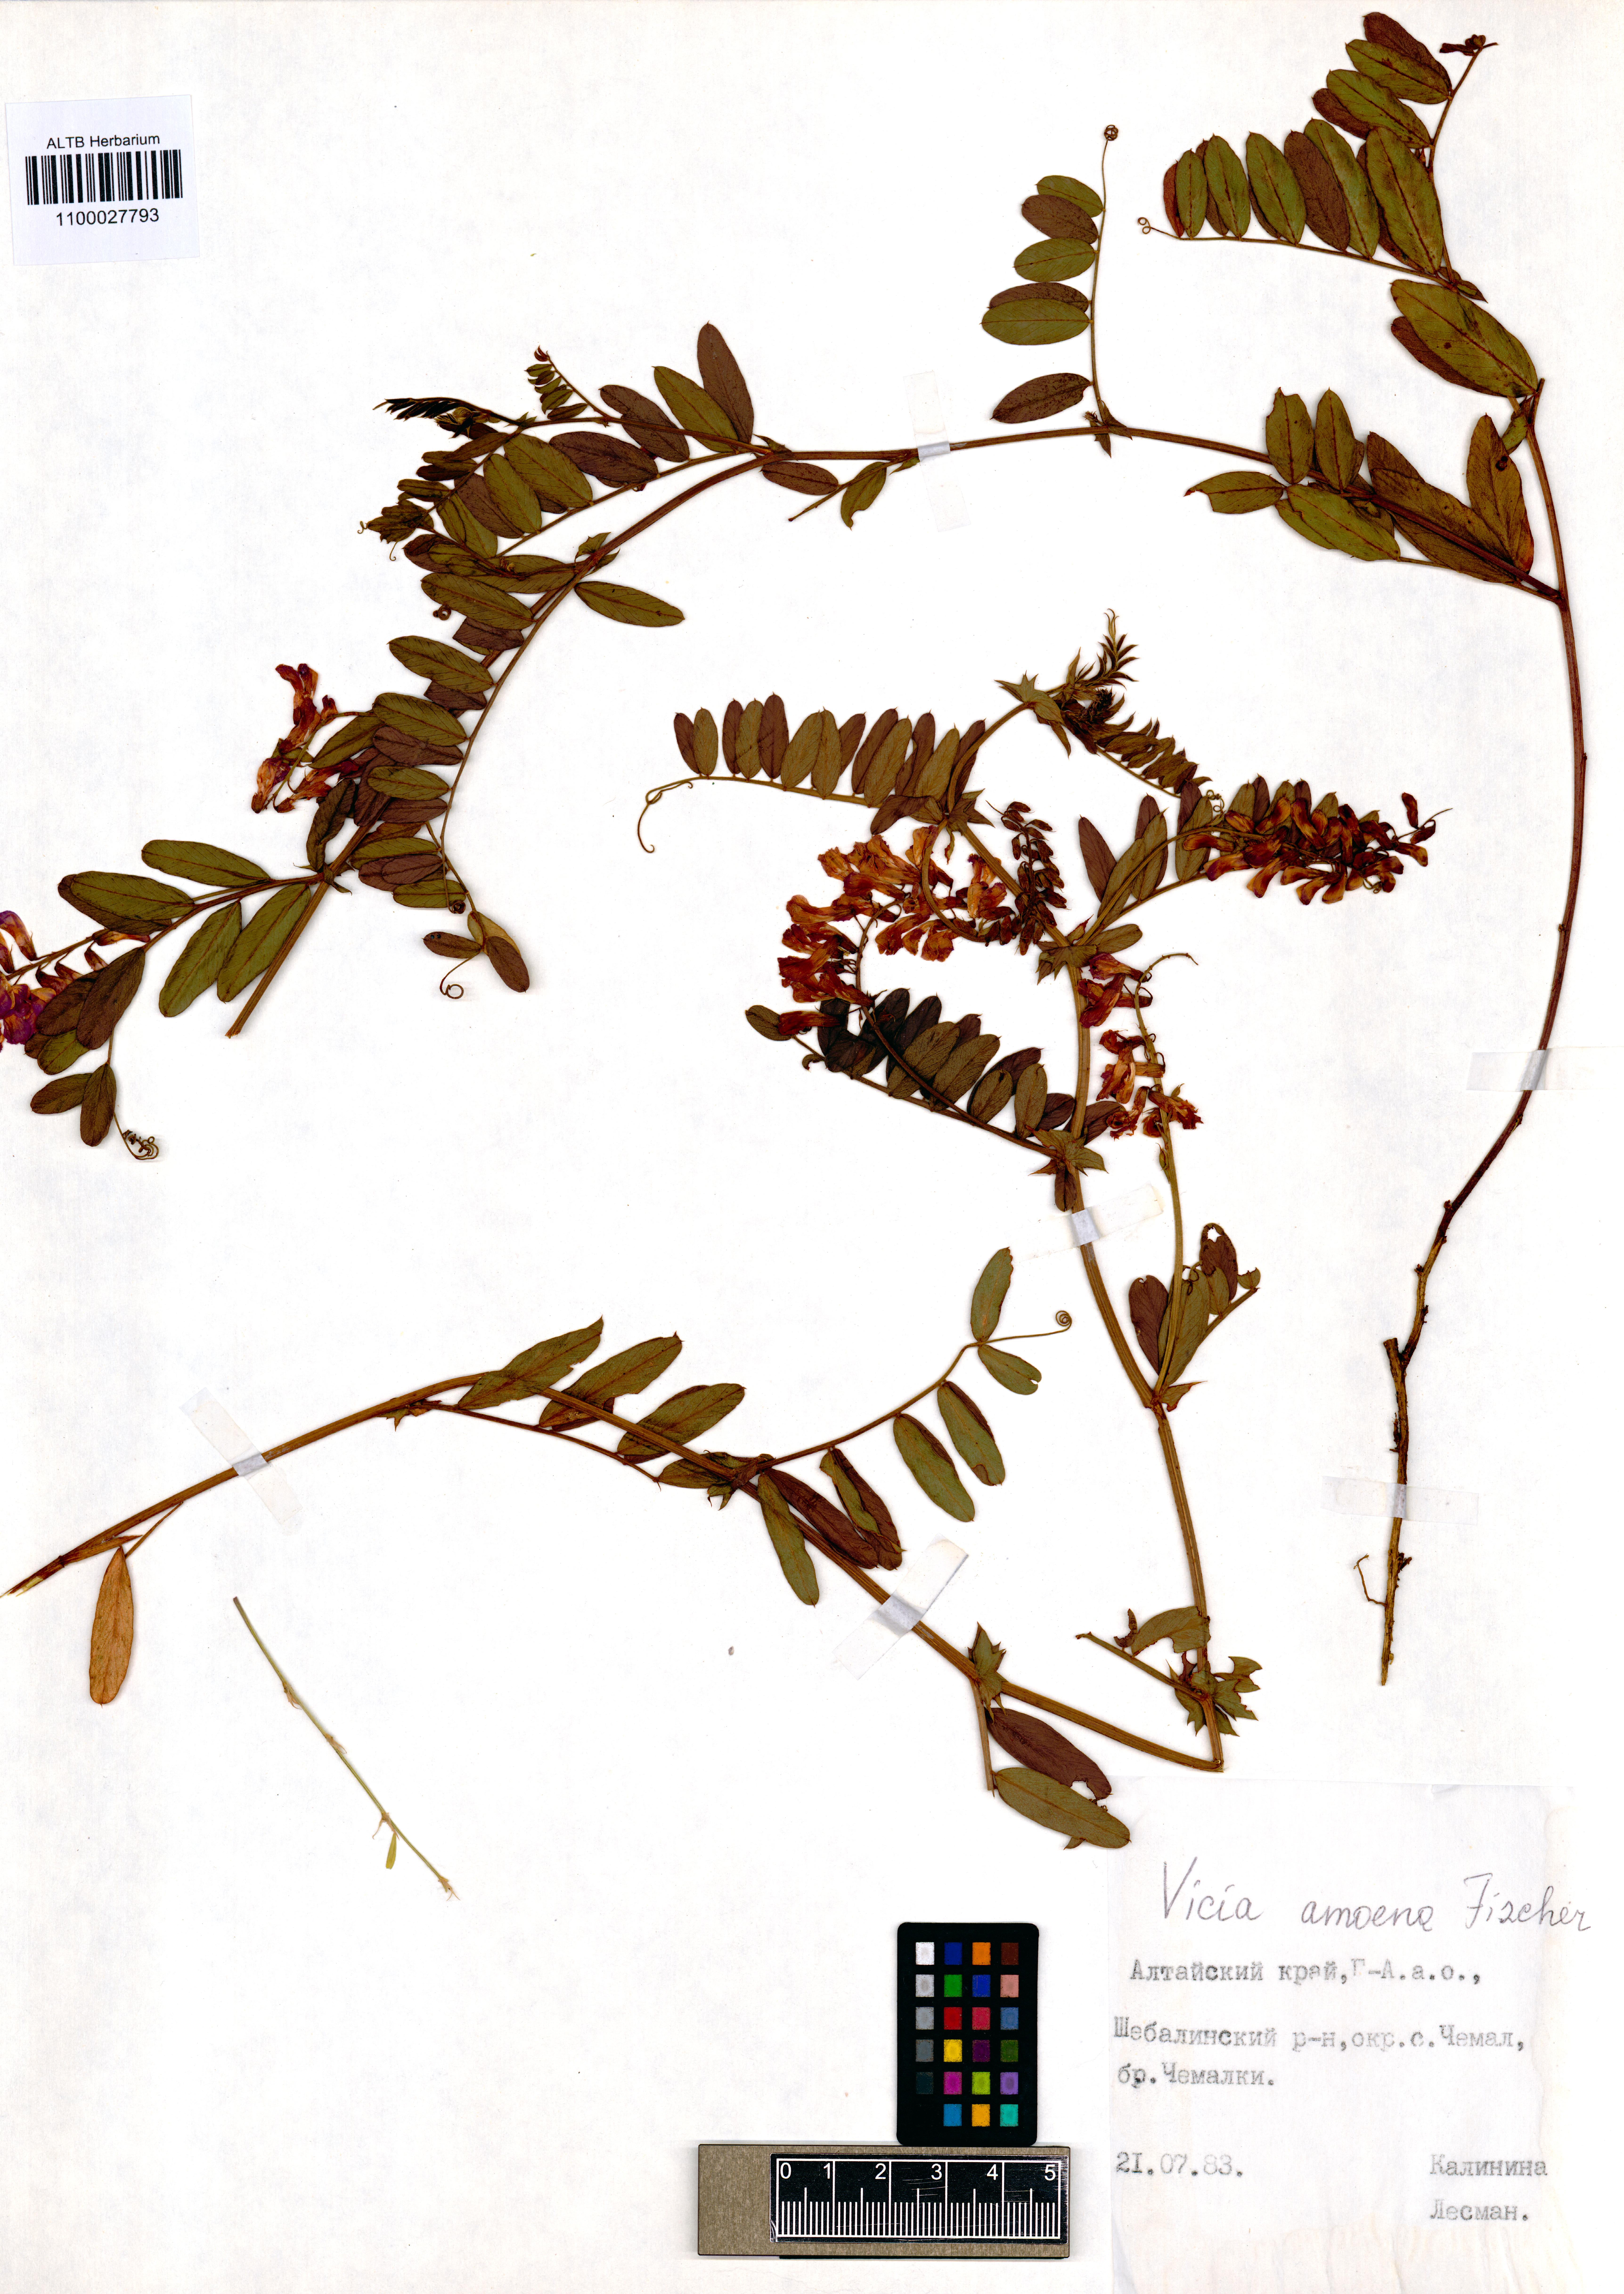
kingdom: Plantae
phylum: Tracheophyta
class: Magnoliopsida
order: Fabales
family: Fabaceae
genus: Vicia
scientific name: Vicia amoena
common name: Cheder ebs
